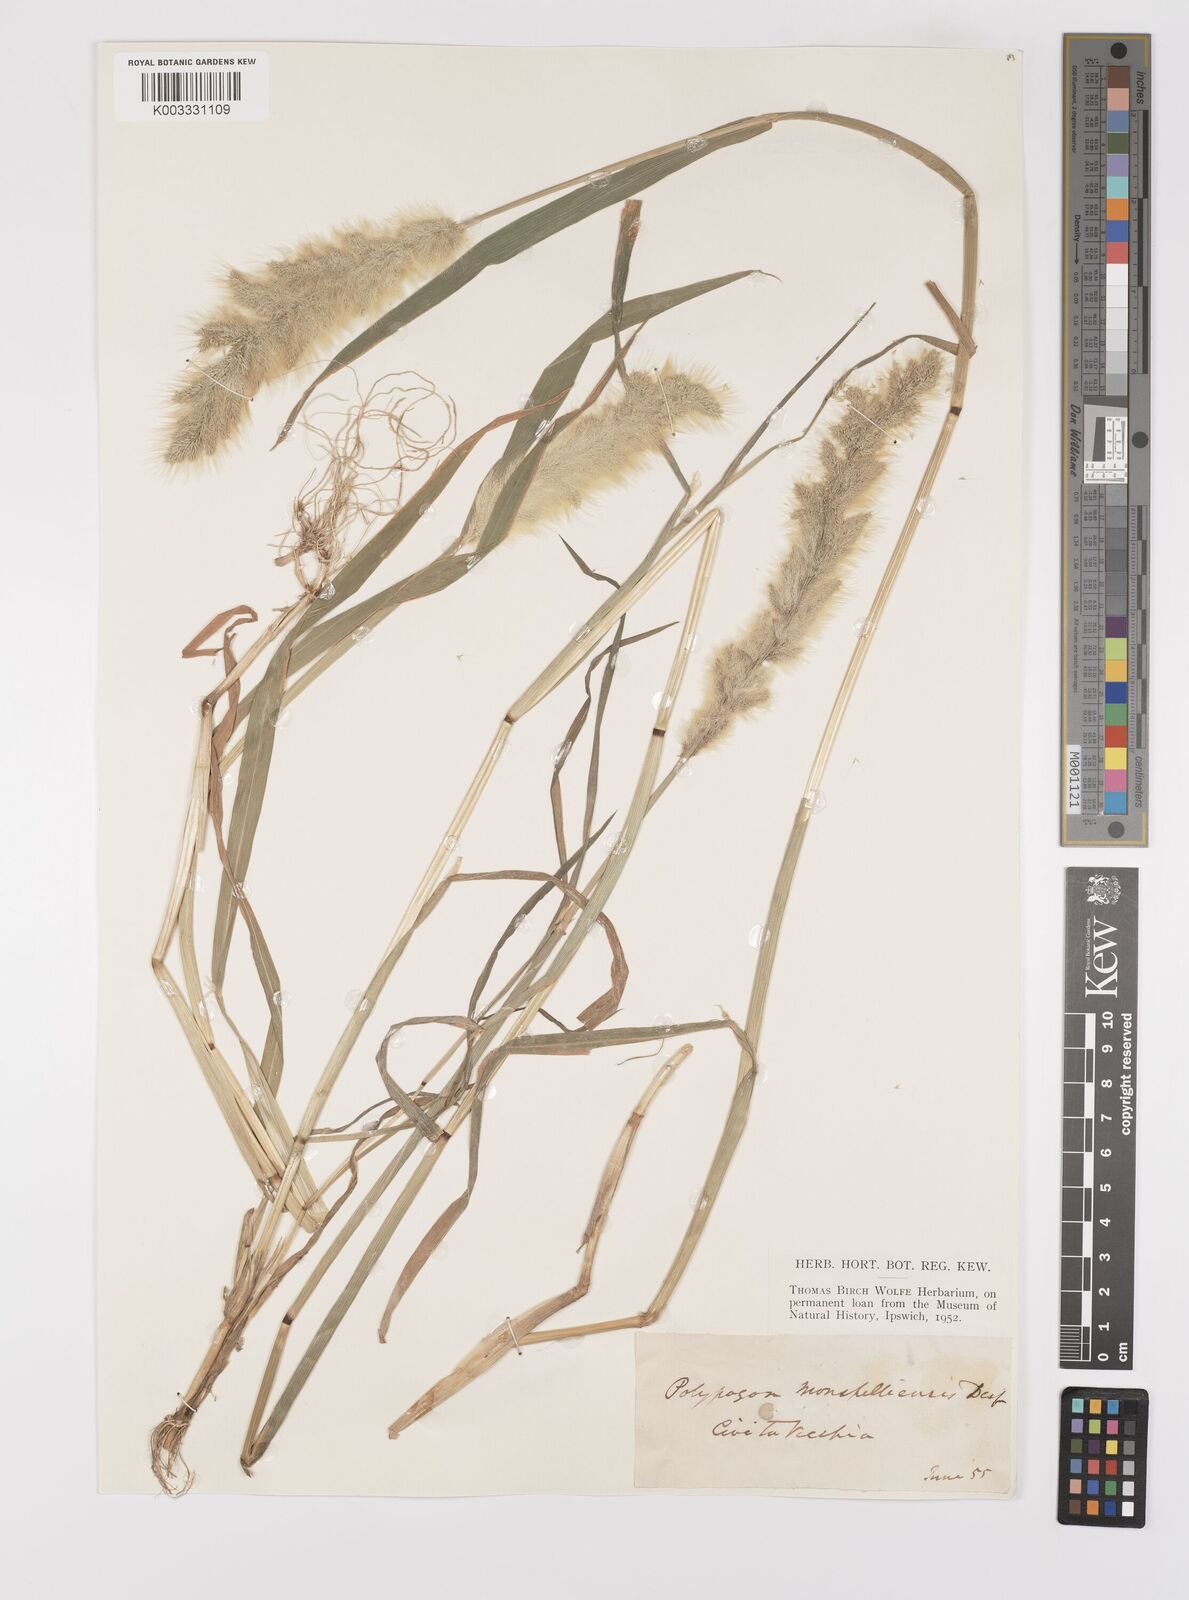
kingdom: Plantae
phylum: Tracheophyta
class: Liliopsida
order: Poales
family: Poaceae
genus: Polypogon
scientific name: Polypogon monspeliensis
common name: Annual rabbitsfoot grass
